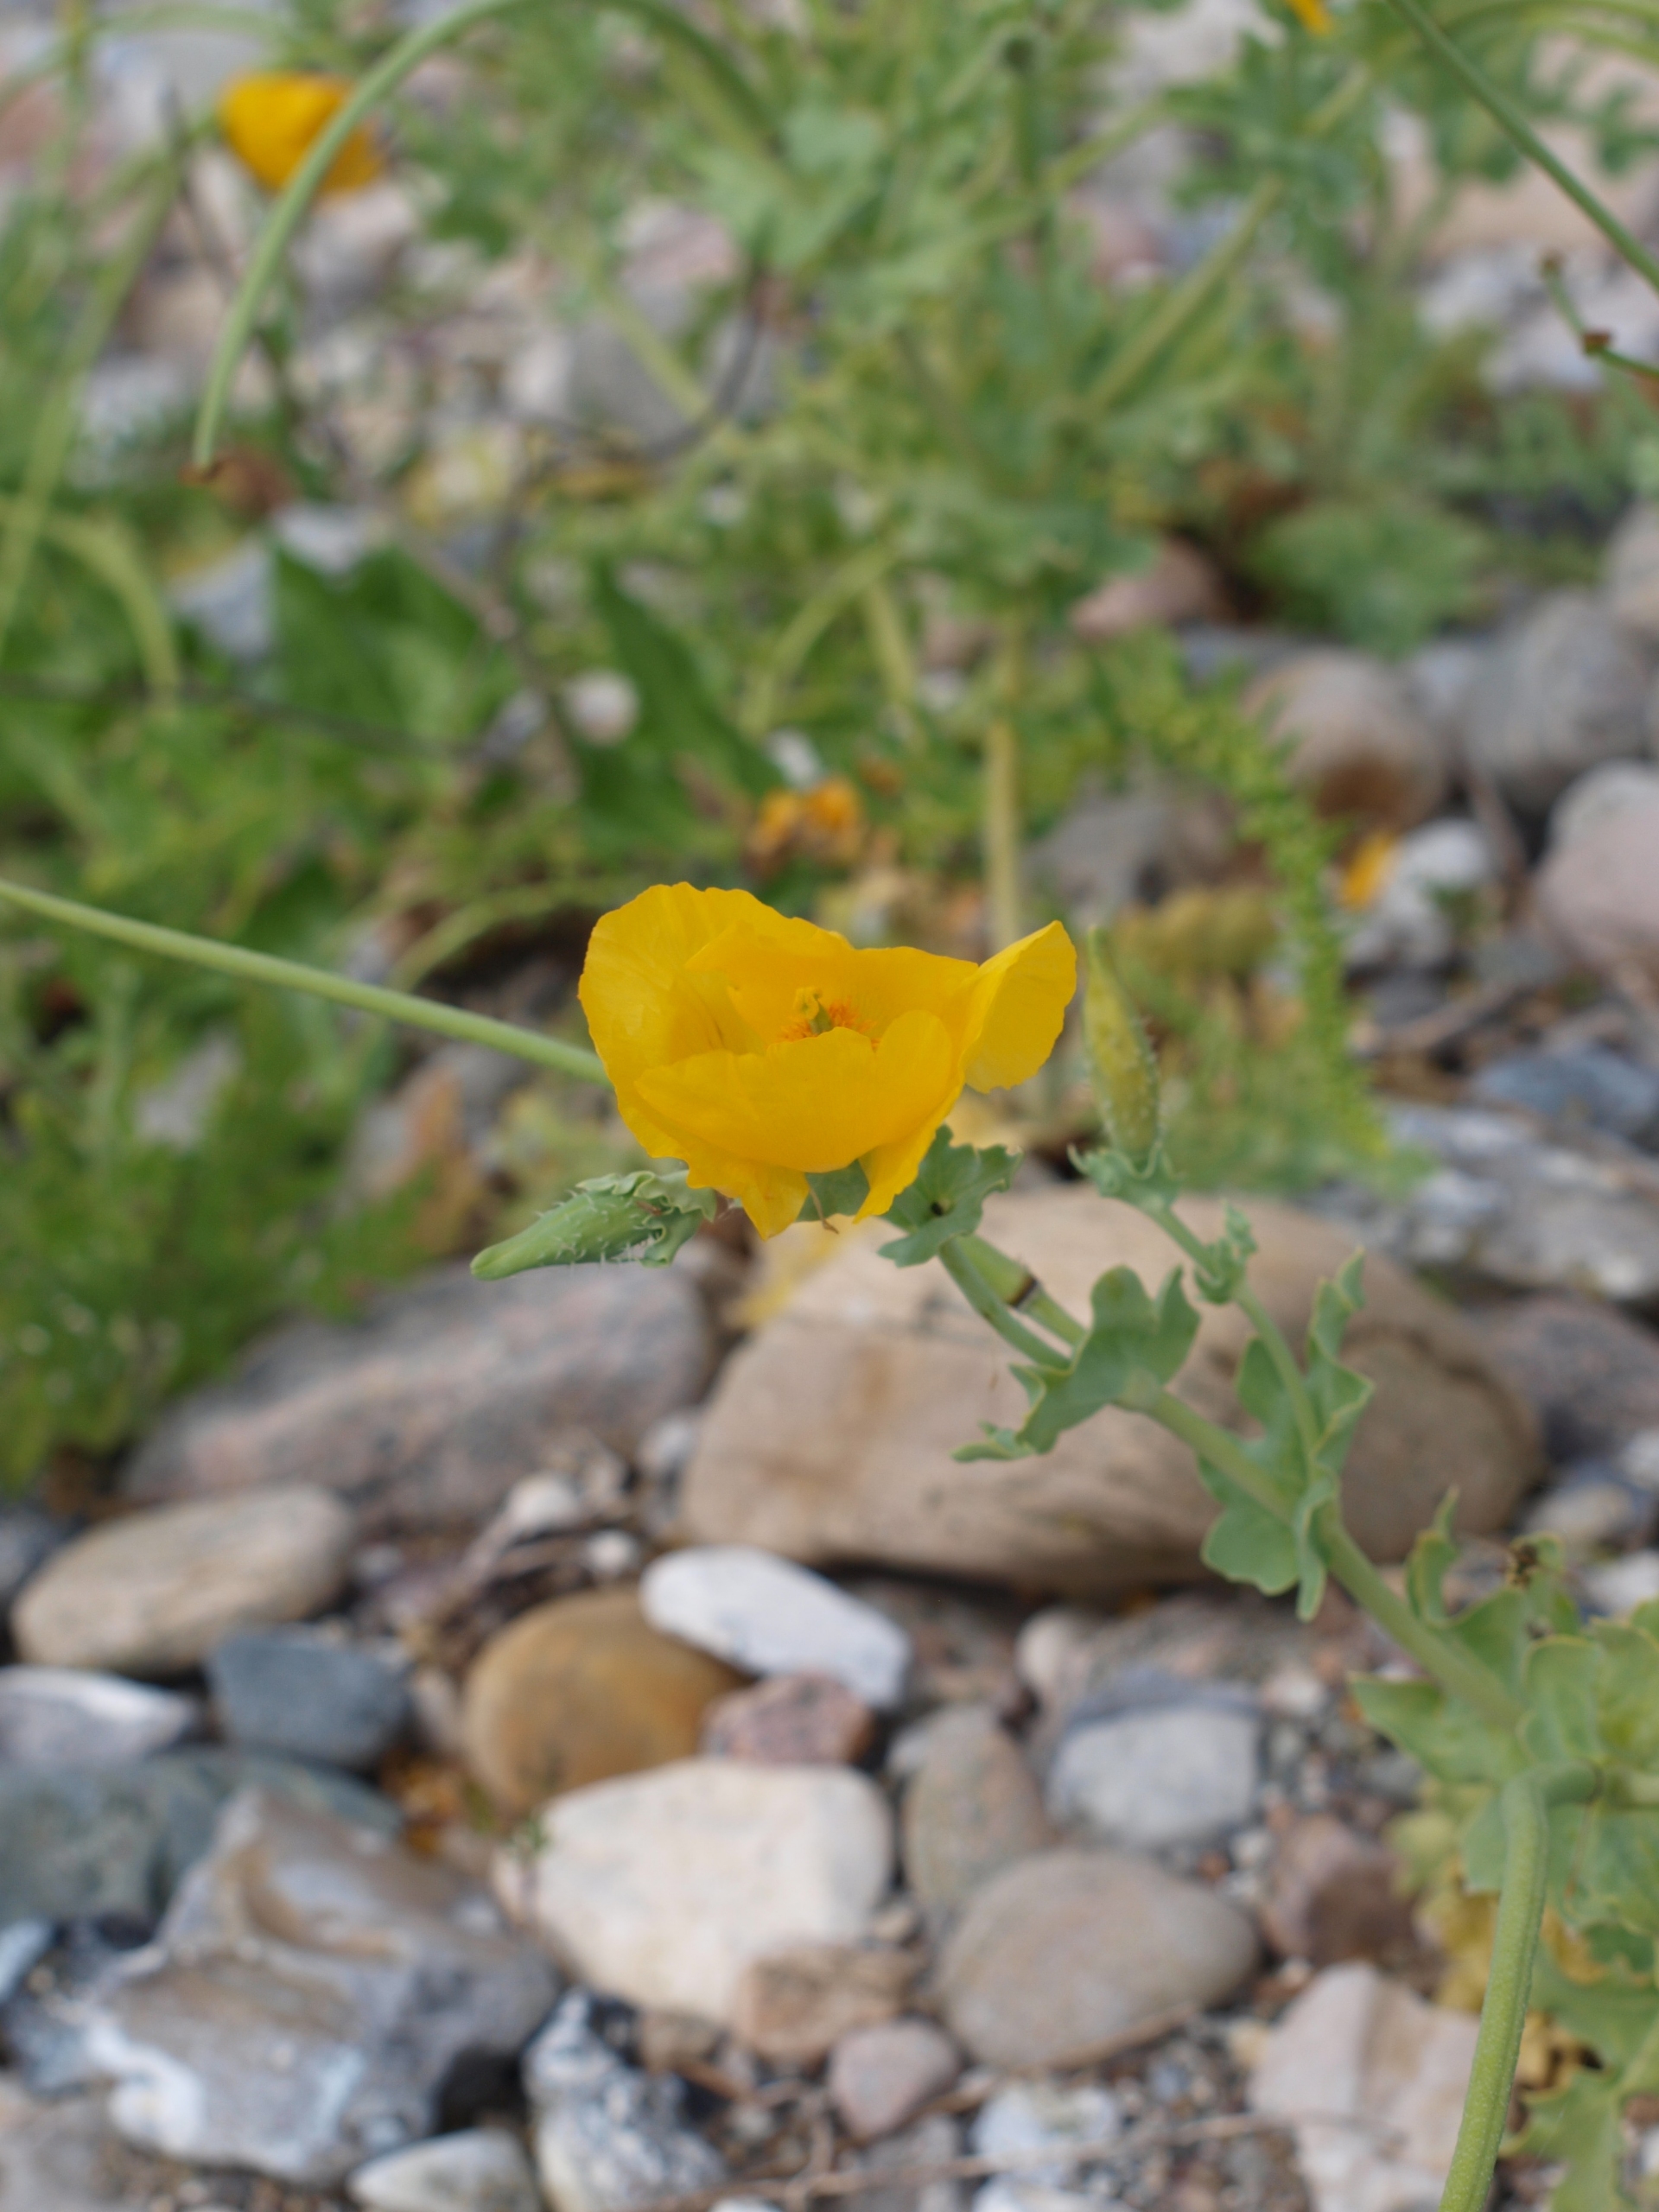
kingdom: Plantae
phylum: Tracheophyta
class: Magnoliopsida
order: Ranunculales
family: Papaveraceae
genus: Glaucium
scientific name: Glaucium flavum
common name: Hornskulpe
